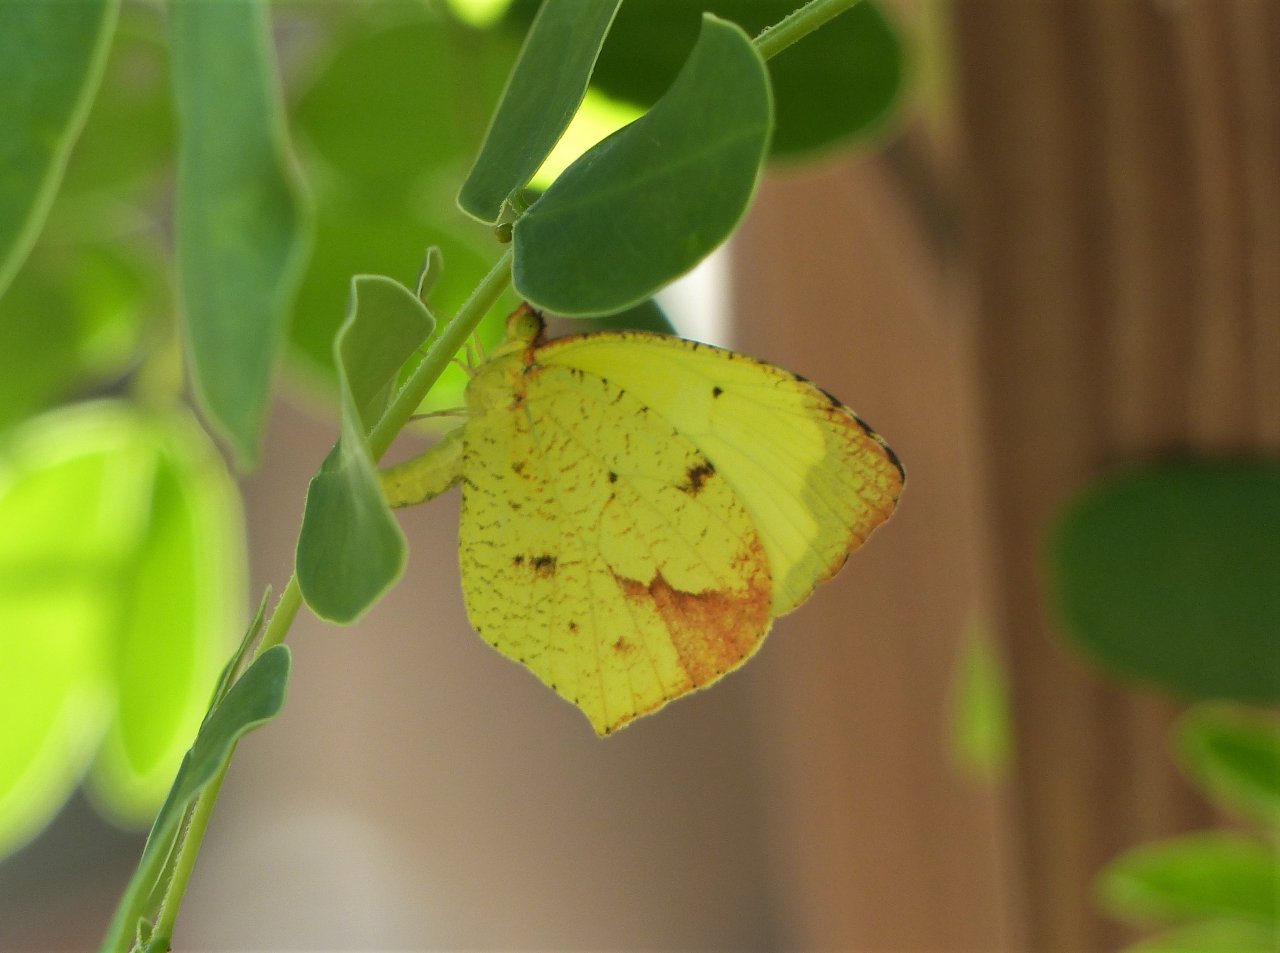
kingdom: Animalia
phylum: Arthropoda
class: Insecta
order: Lepidoptera
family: Pieridae
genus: Eurema
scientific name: Eurema boisduvaliana
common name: Boisduval's Yellow
